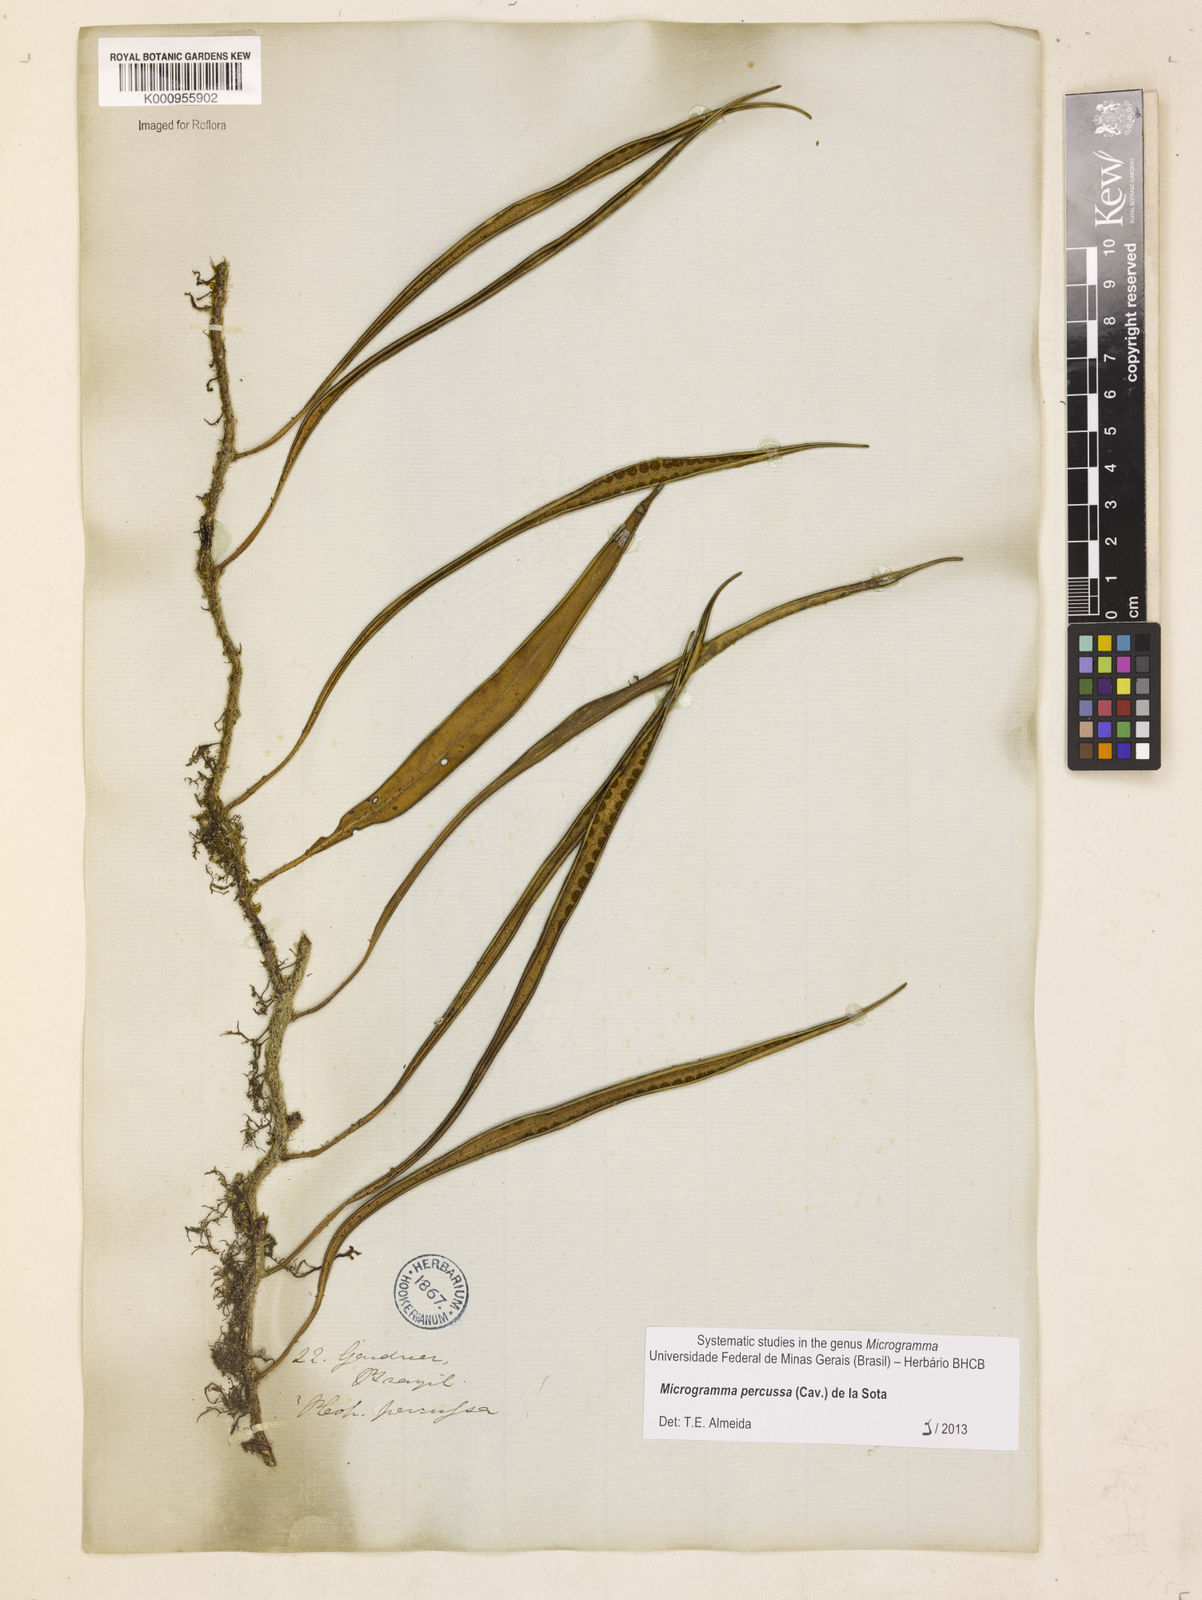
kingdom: Plantae
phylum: Tracheophyta
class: Polypodiopsida
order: Polypodiales
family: Polypodiaceae
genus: Microgramma
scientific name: Microgramma percussa
